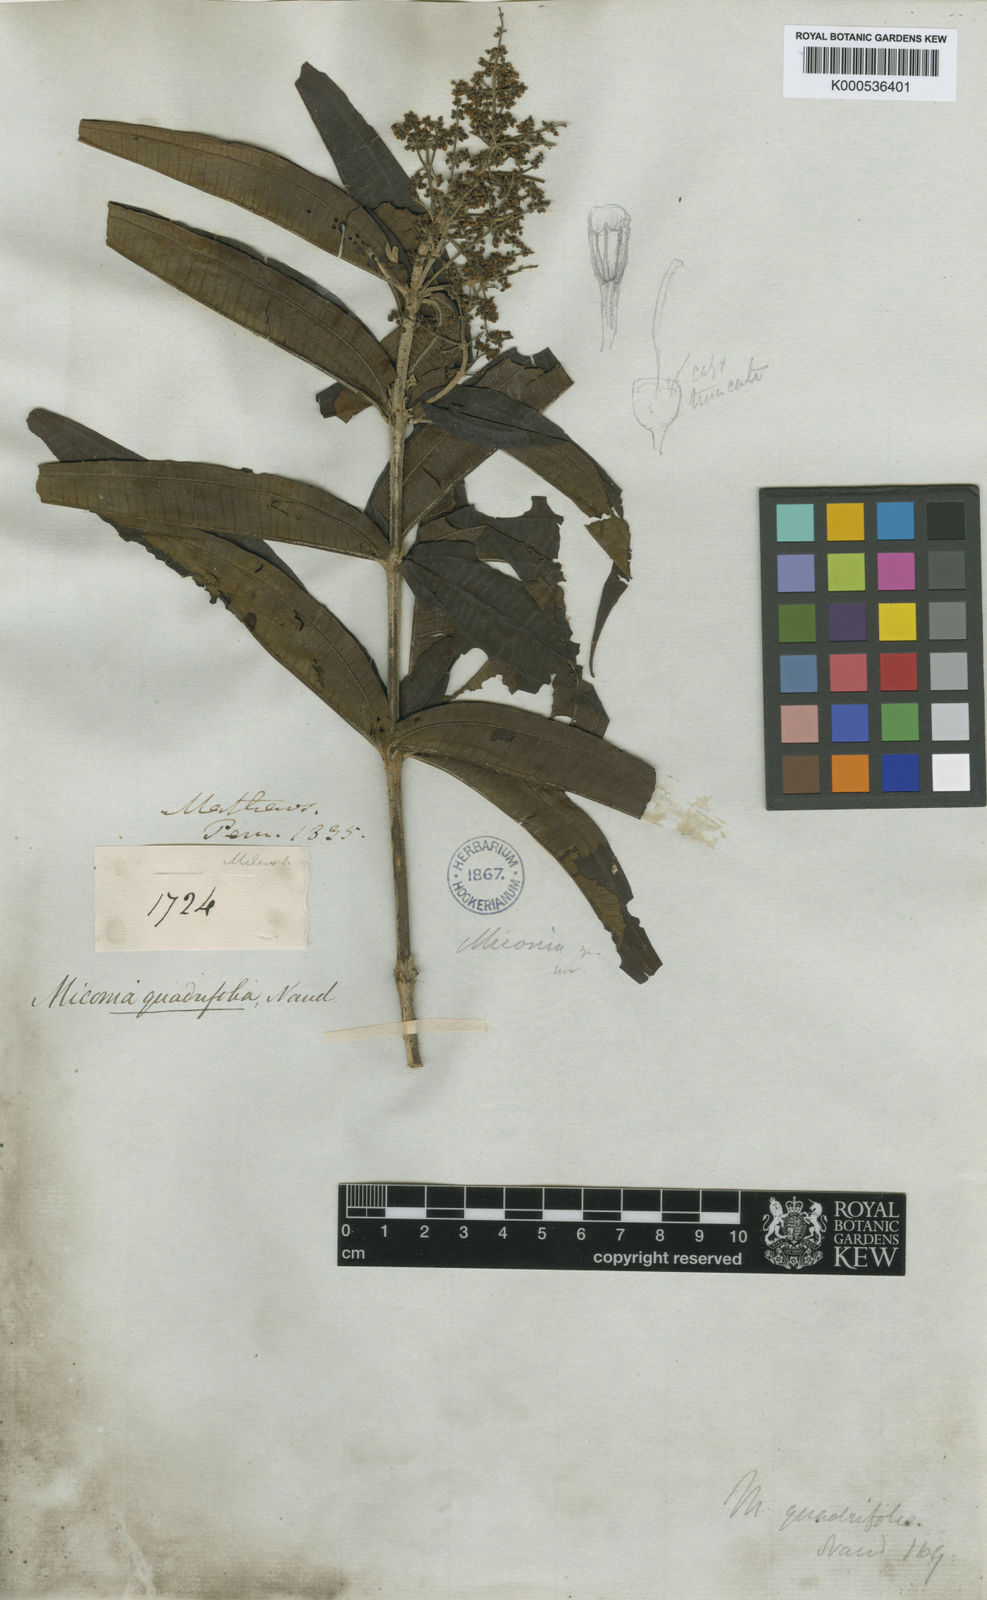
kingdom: Plantae
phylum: Tracheophyta
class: Magnoliopsida
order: Myrtales
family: Melastomataceae
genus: Miconia
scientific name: Miconia quadrifolia
